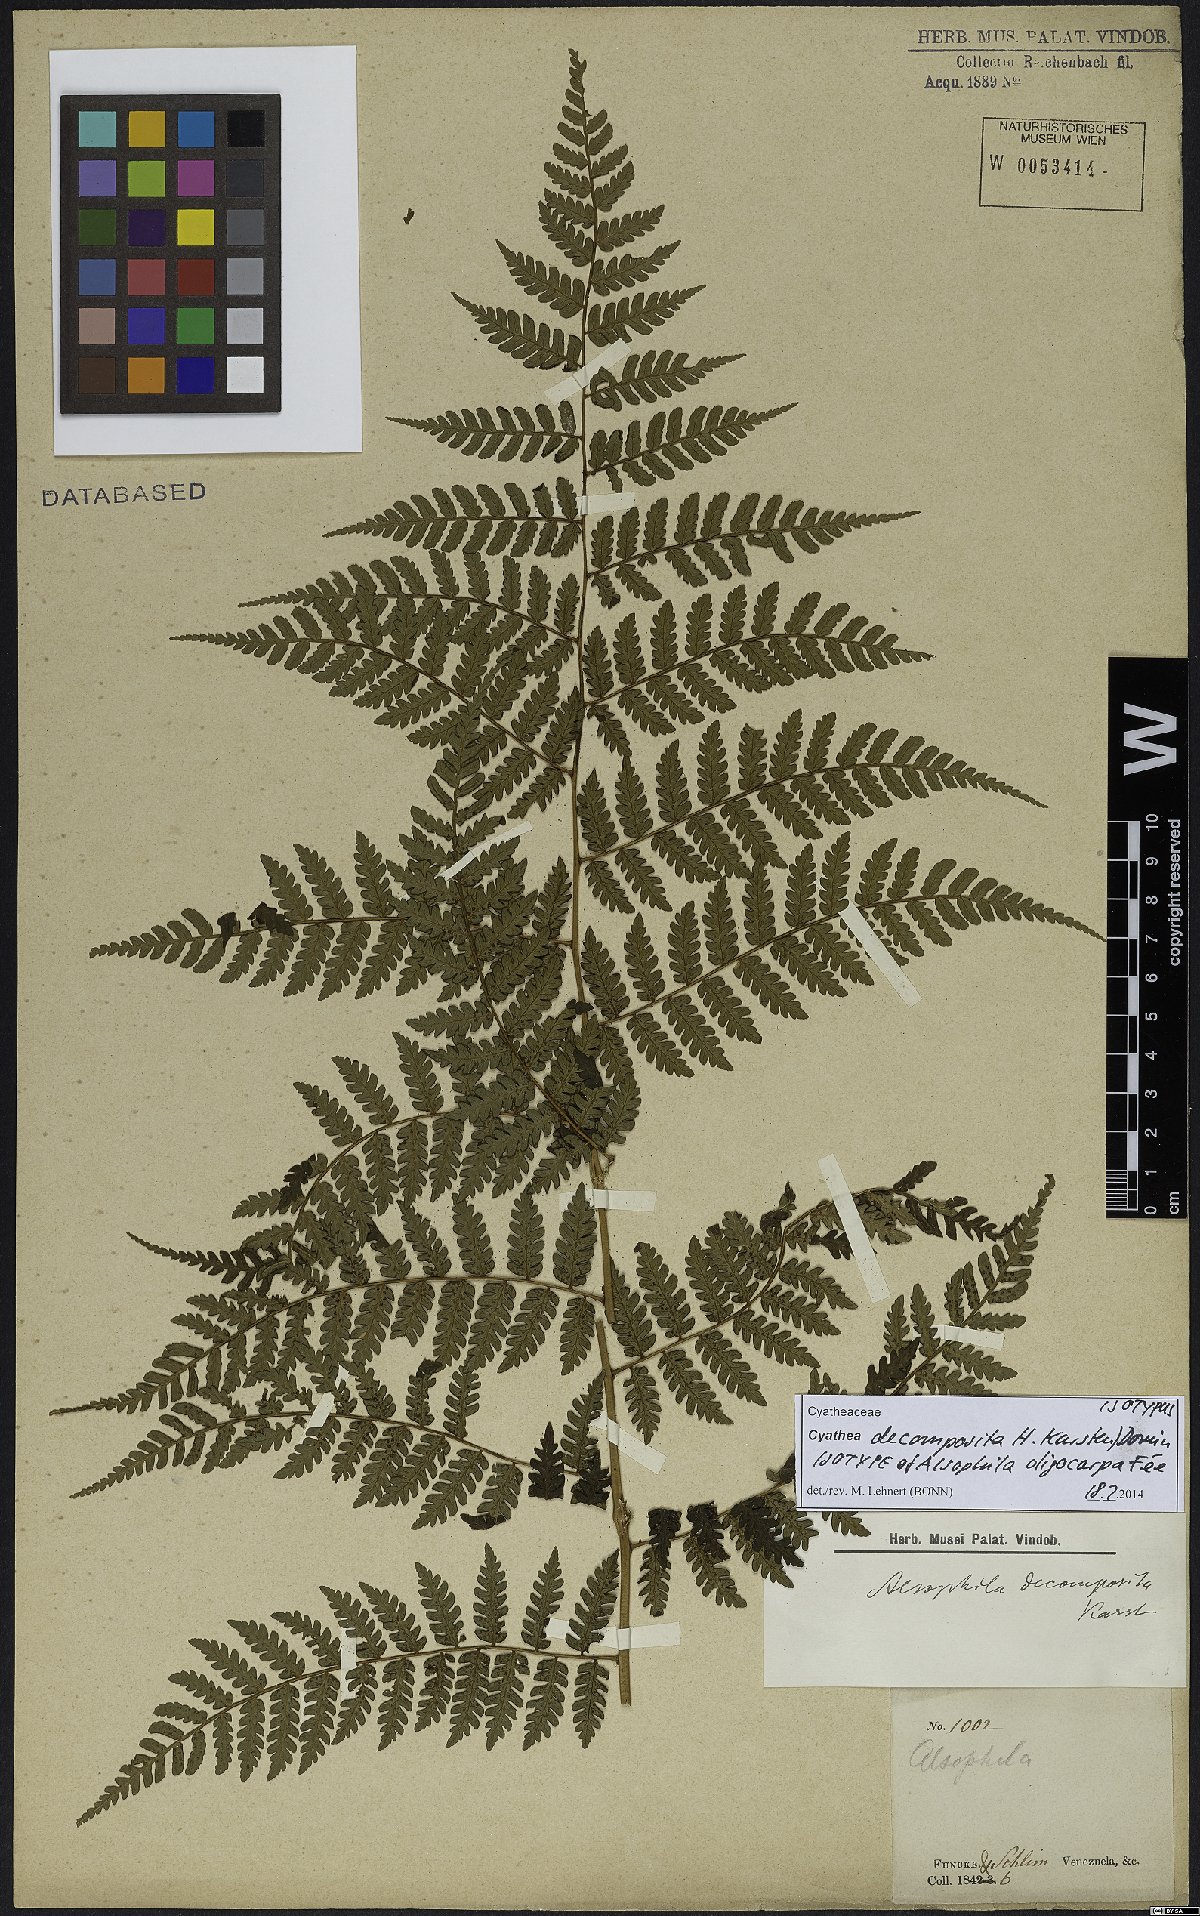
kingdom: Plantae
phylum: Tracheophyta
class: Polypodiopsida
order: Cyatheales
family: Cyatheaceae
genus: Cyathea
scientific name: Cyathea decomposita
